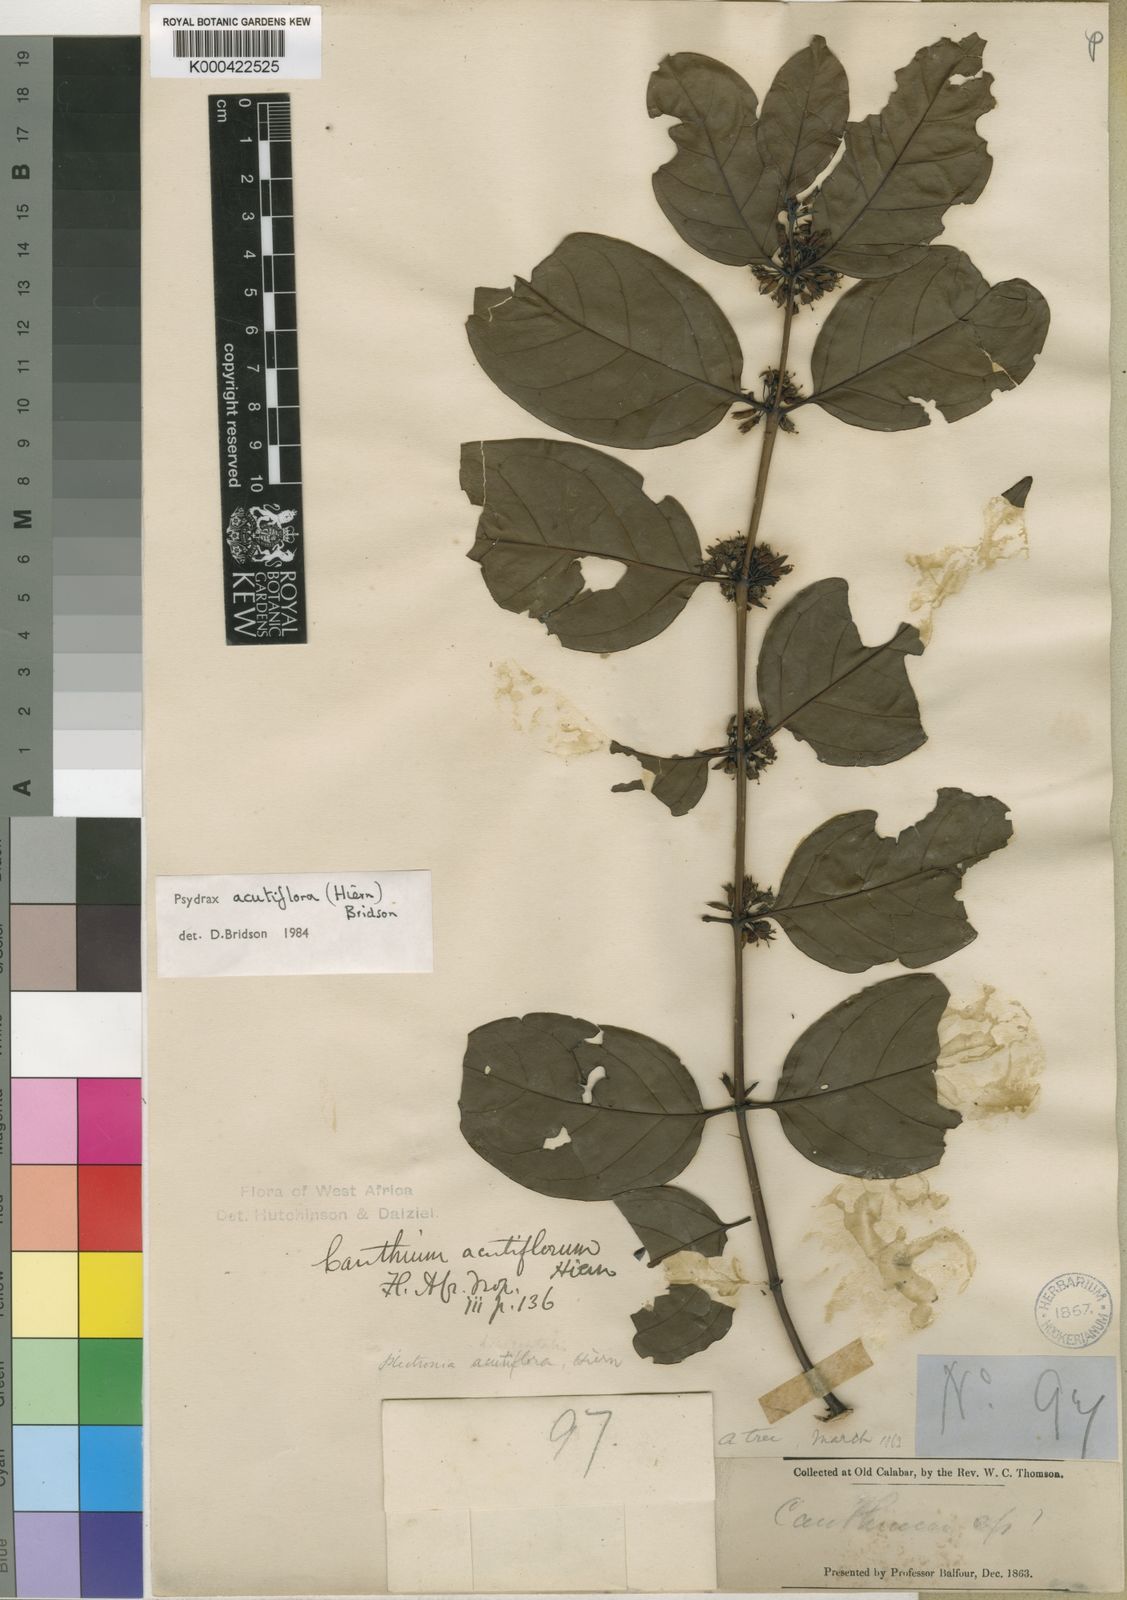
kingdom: Plantae
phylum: Tracheophyta
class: Magnoliopsida
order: Gentianales
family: Rubiaceae
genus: Psydrax
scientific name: Psydrax acutiflorus
